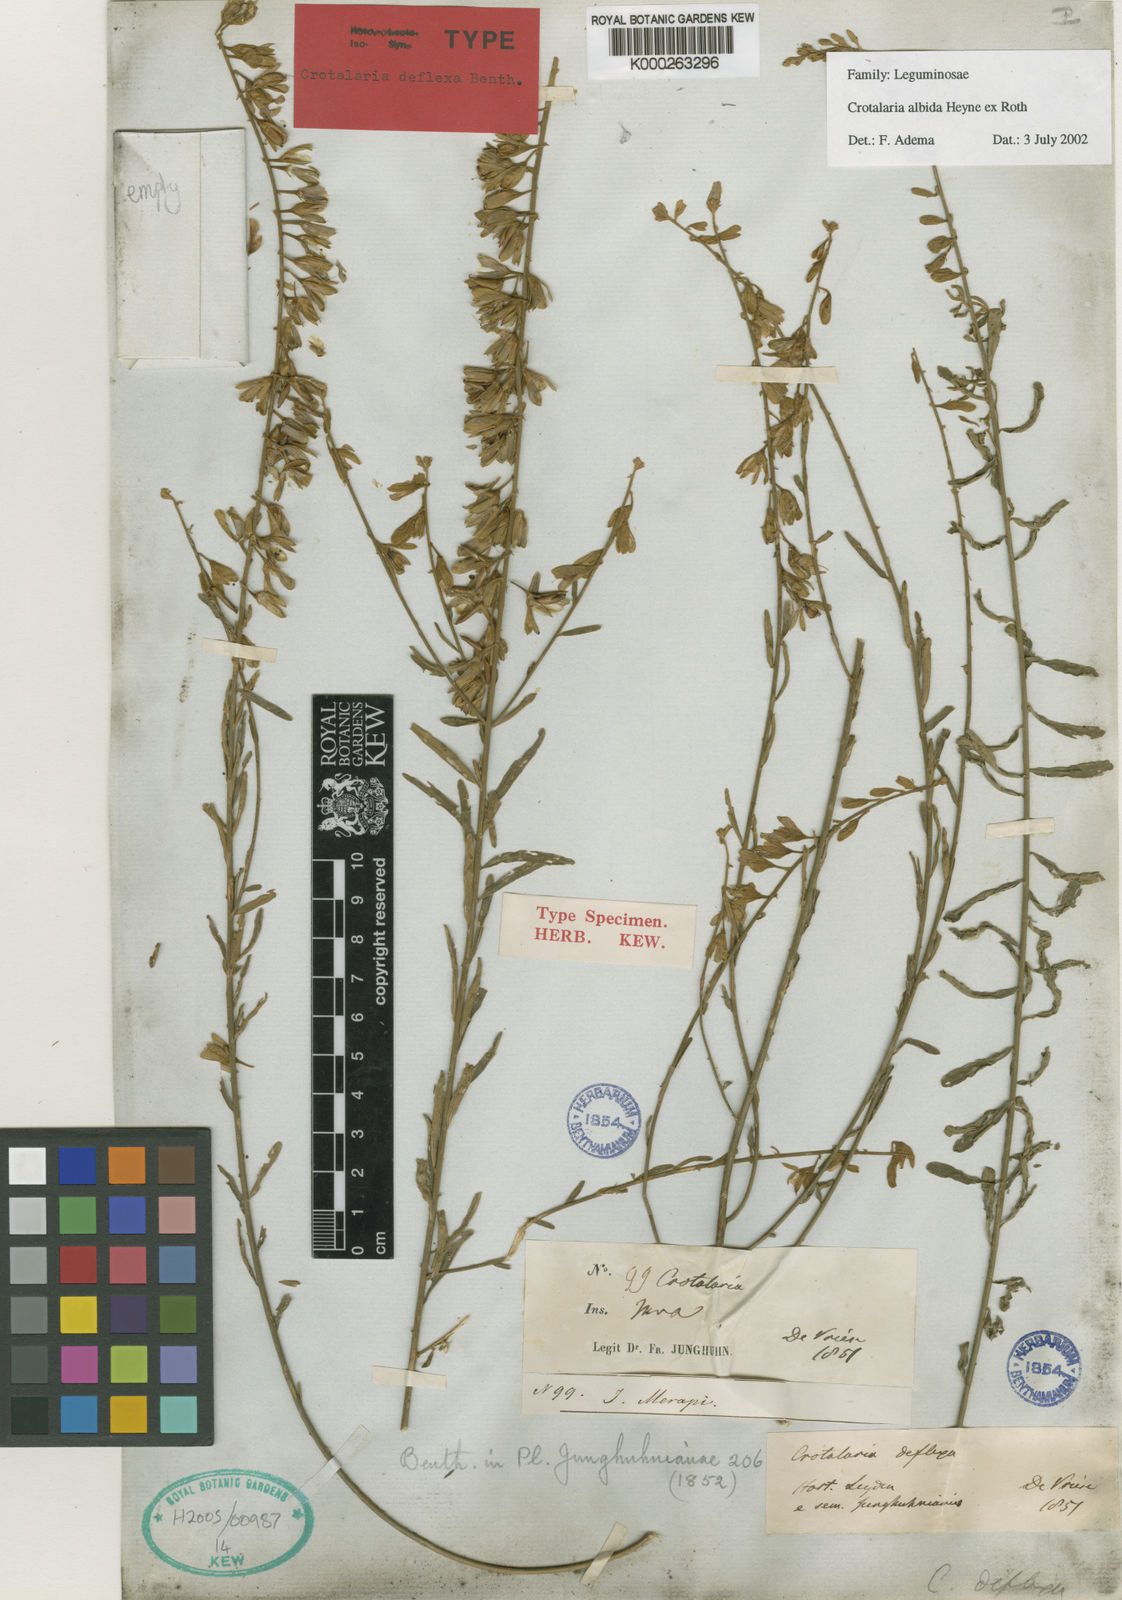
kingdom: Plantae
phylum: Tracheophyta
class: Magnoliopsida
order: Fabales
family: Fabaceae
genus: Crotalaria
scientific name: Crotalaria albida
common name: Taiwan crotalaria
